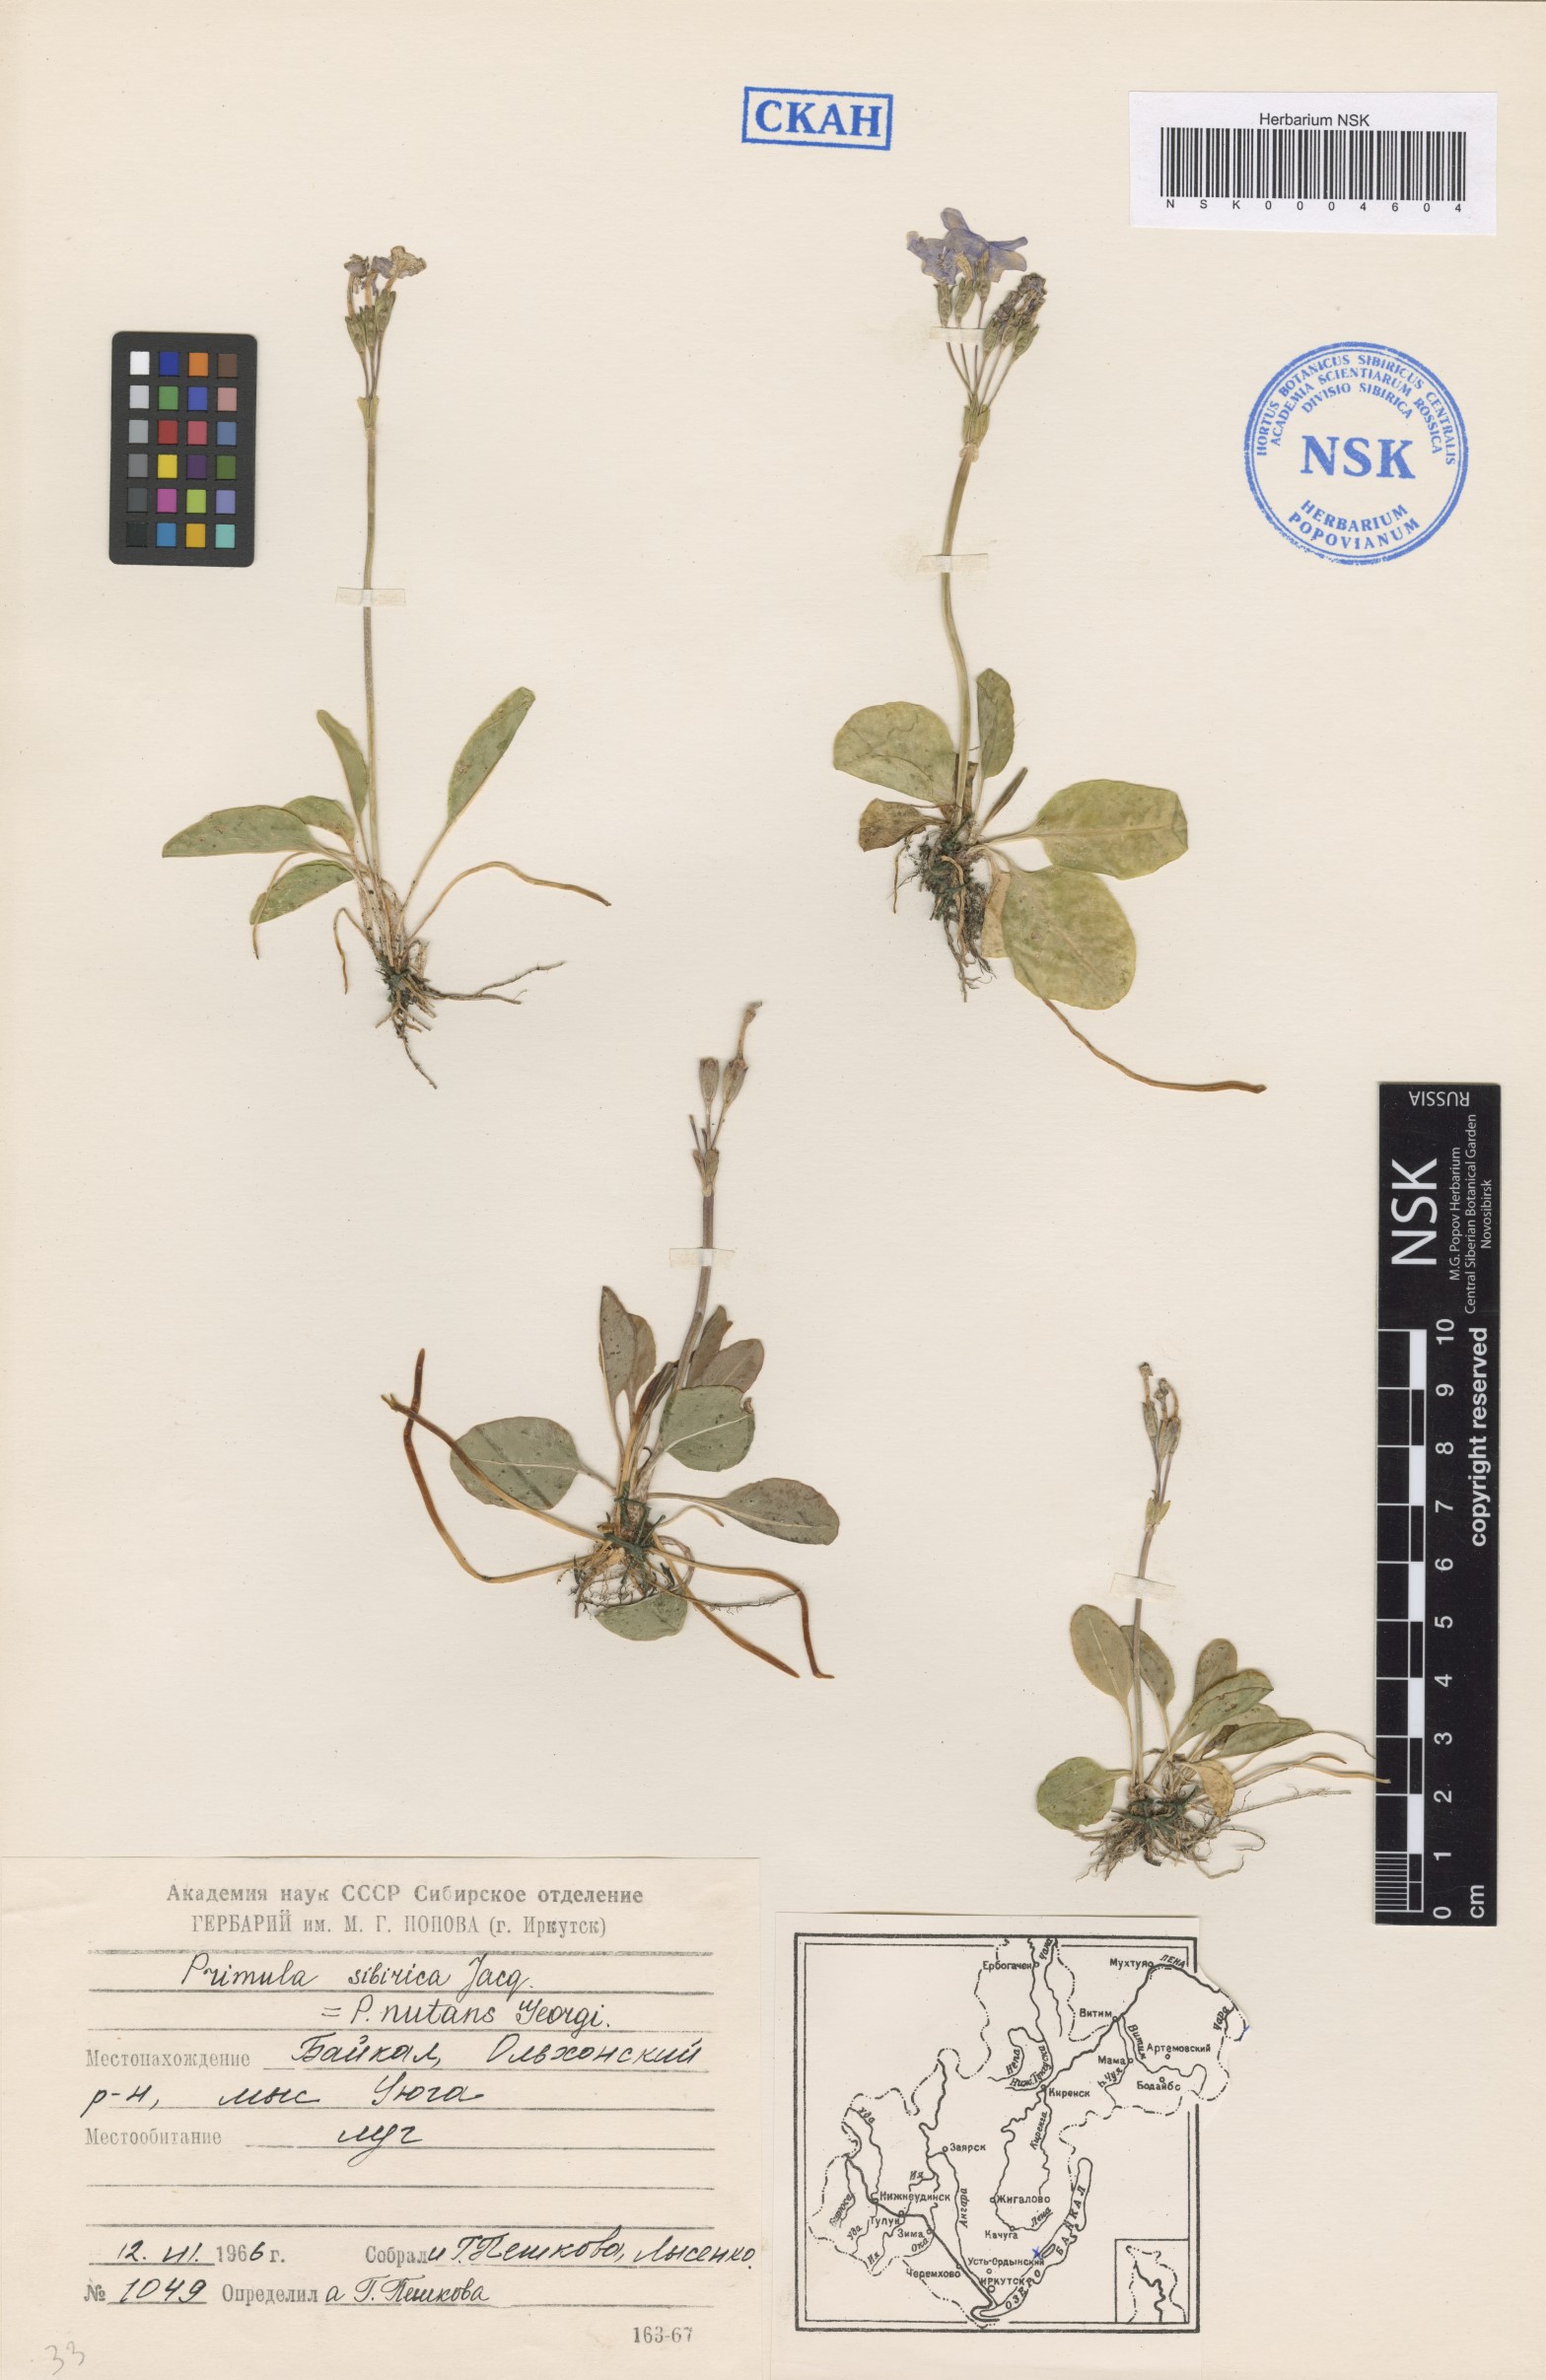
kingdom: Plantae
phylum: Tracheophyta
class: Magnoliopsida
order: Ericales
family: Primulaceae
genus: Primula
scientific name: Primula nutans
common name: Siberian primrose
